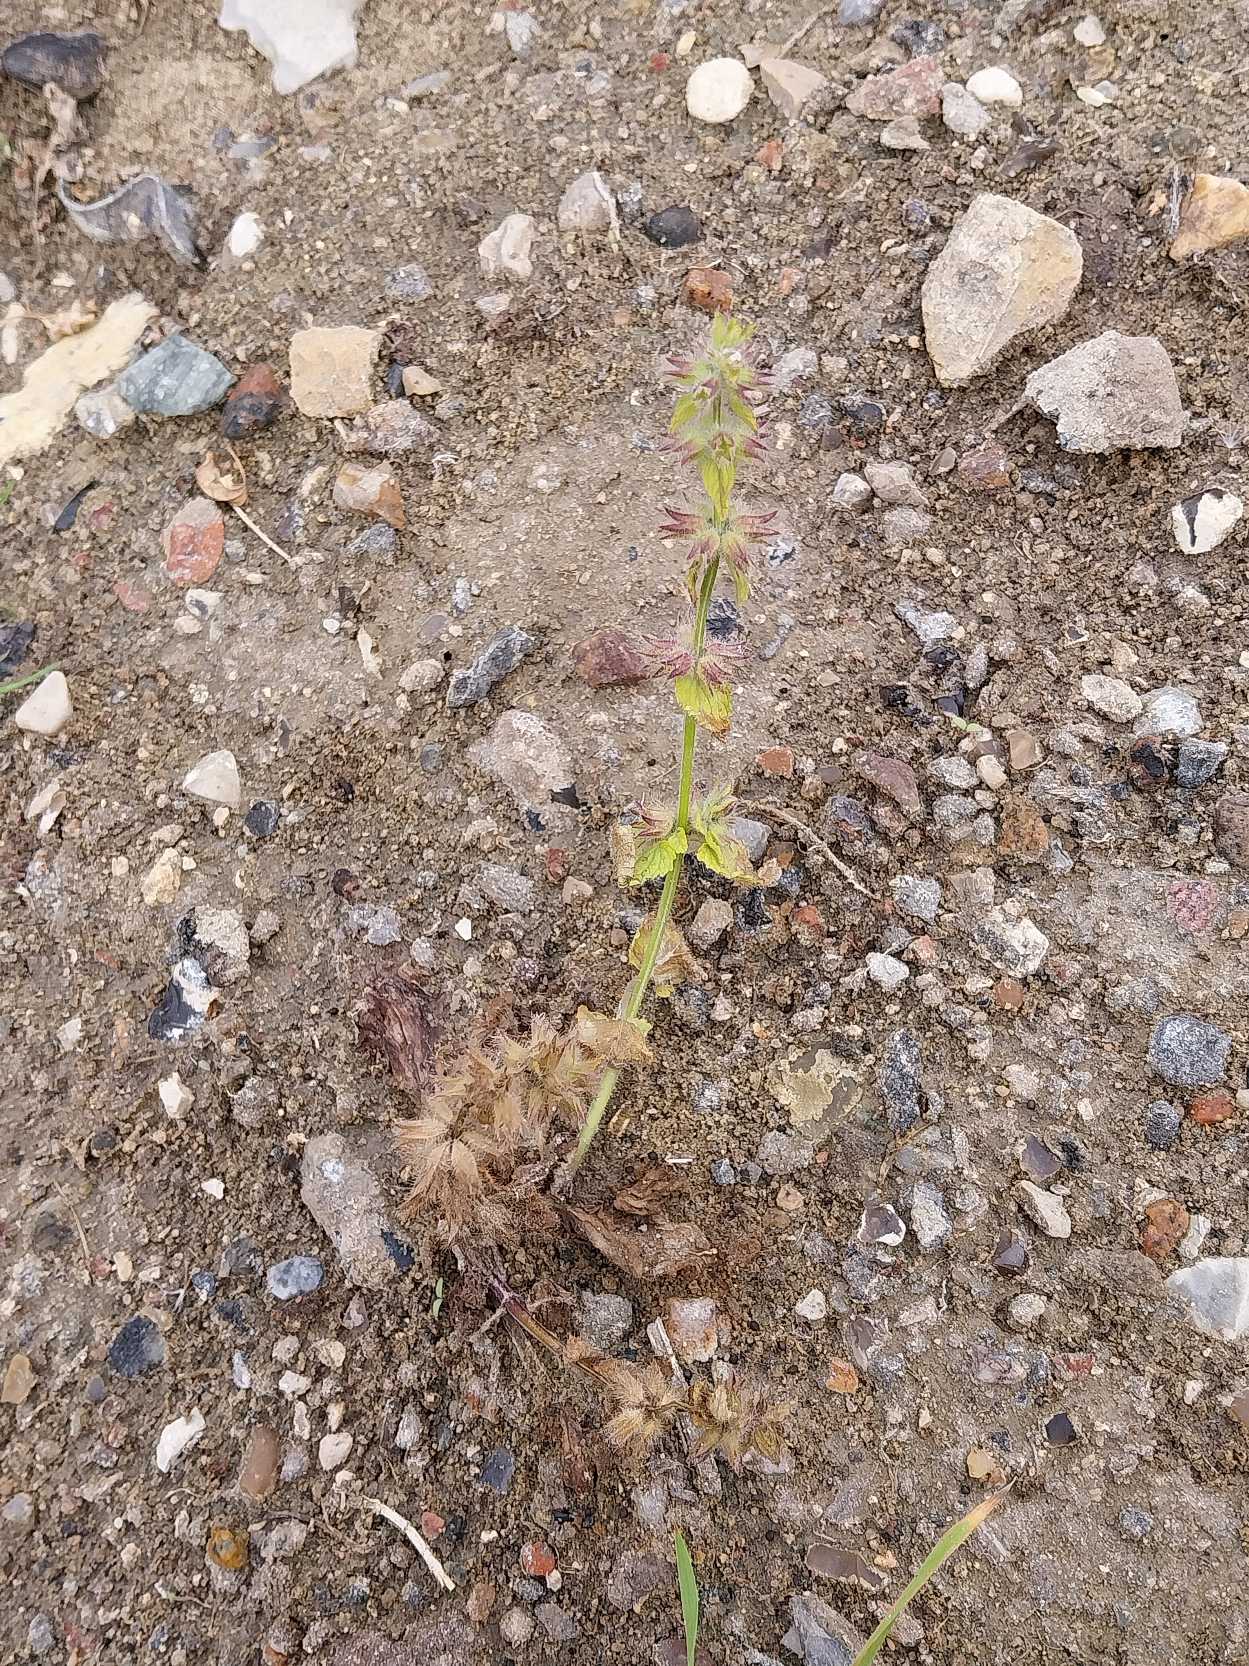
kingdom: Plantae
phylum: Tracheophyta
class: Magnoliopsida
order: Lamiales
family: Lamiaceae
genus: Stachys
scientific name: Stachys arvensis
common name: Ager-galtetand
